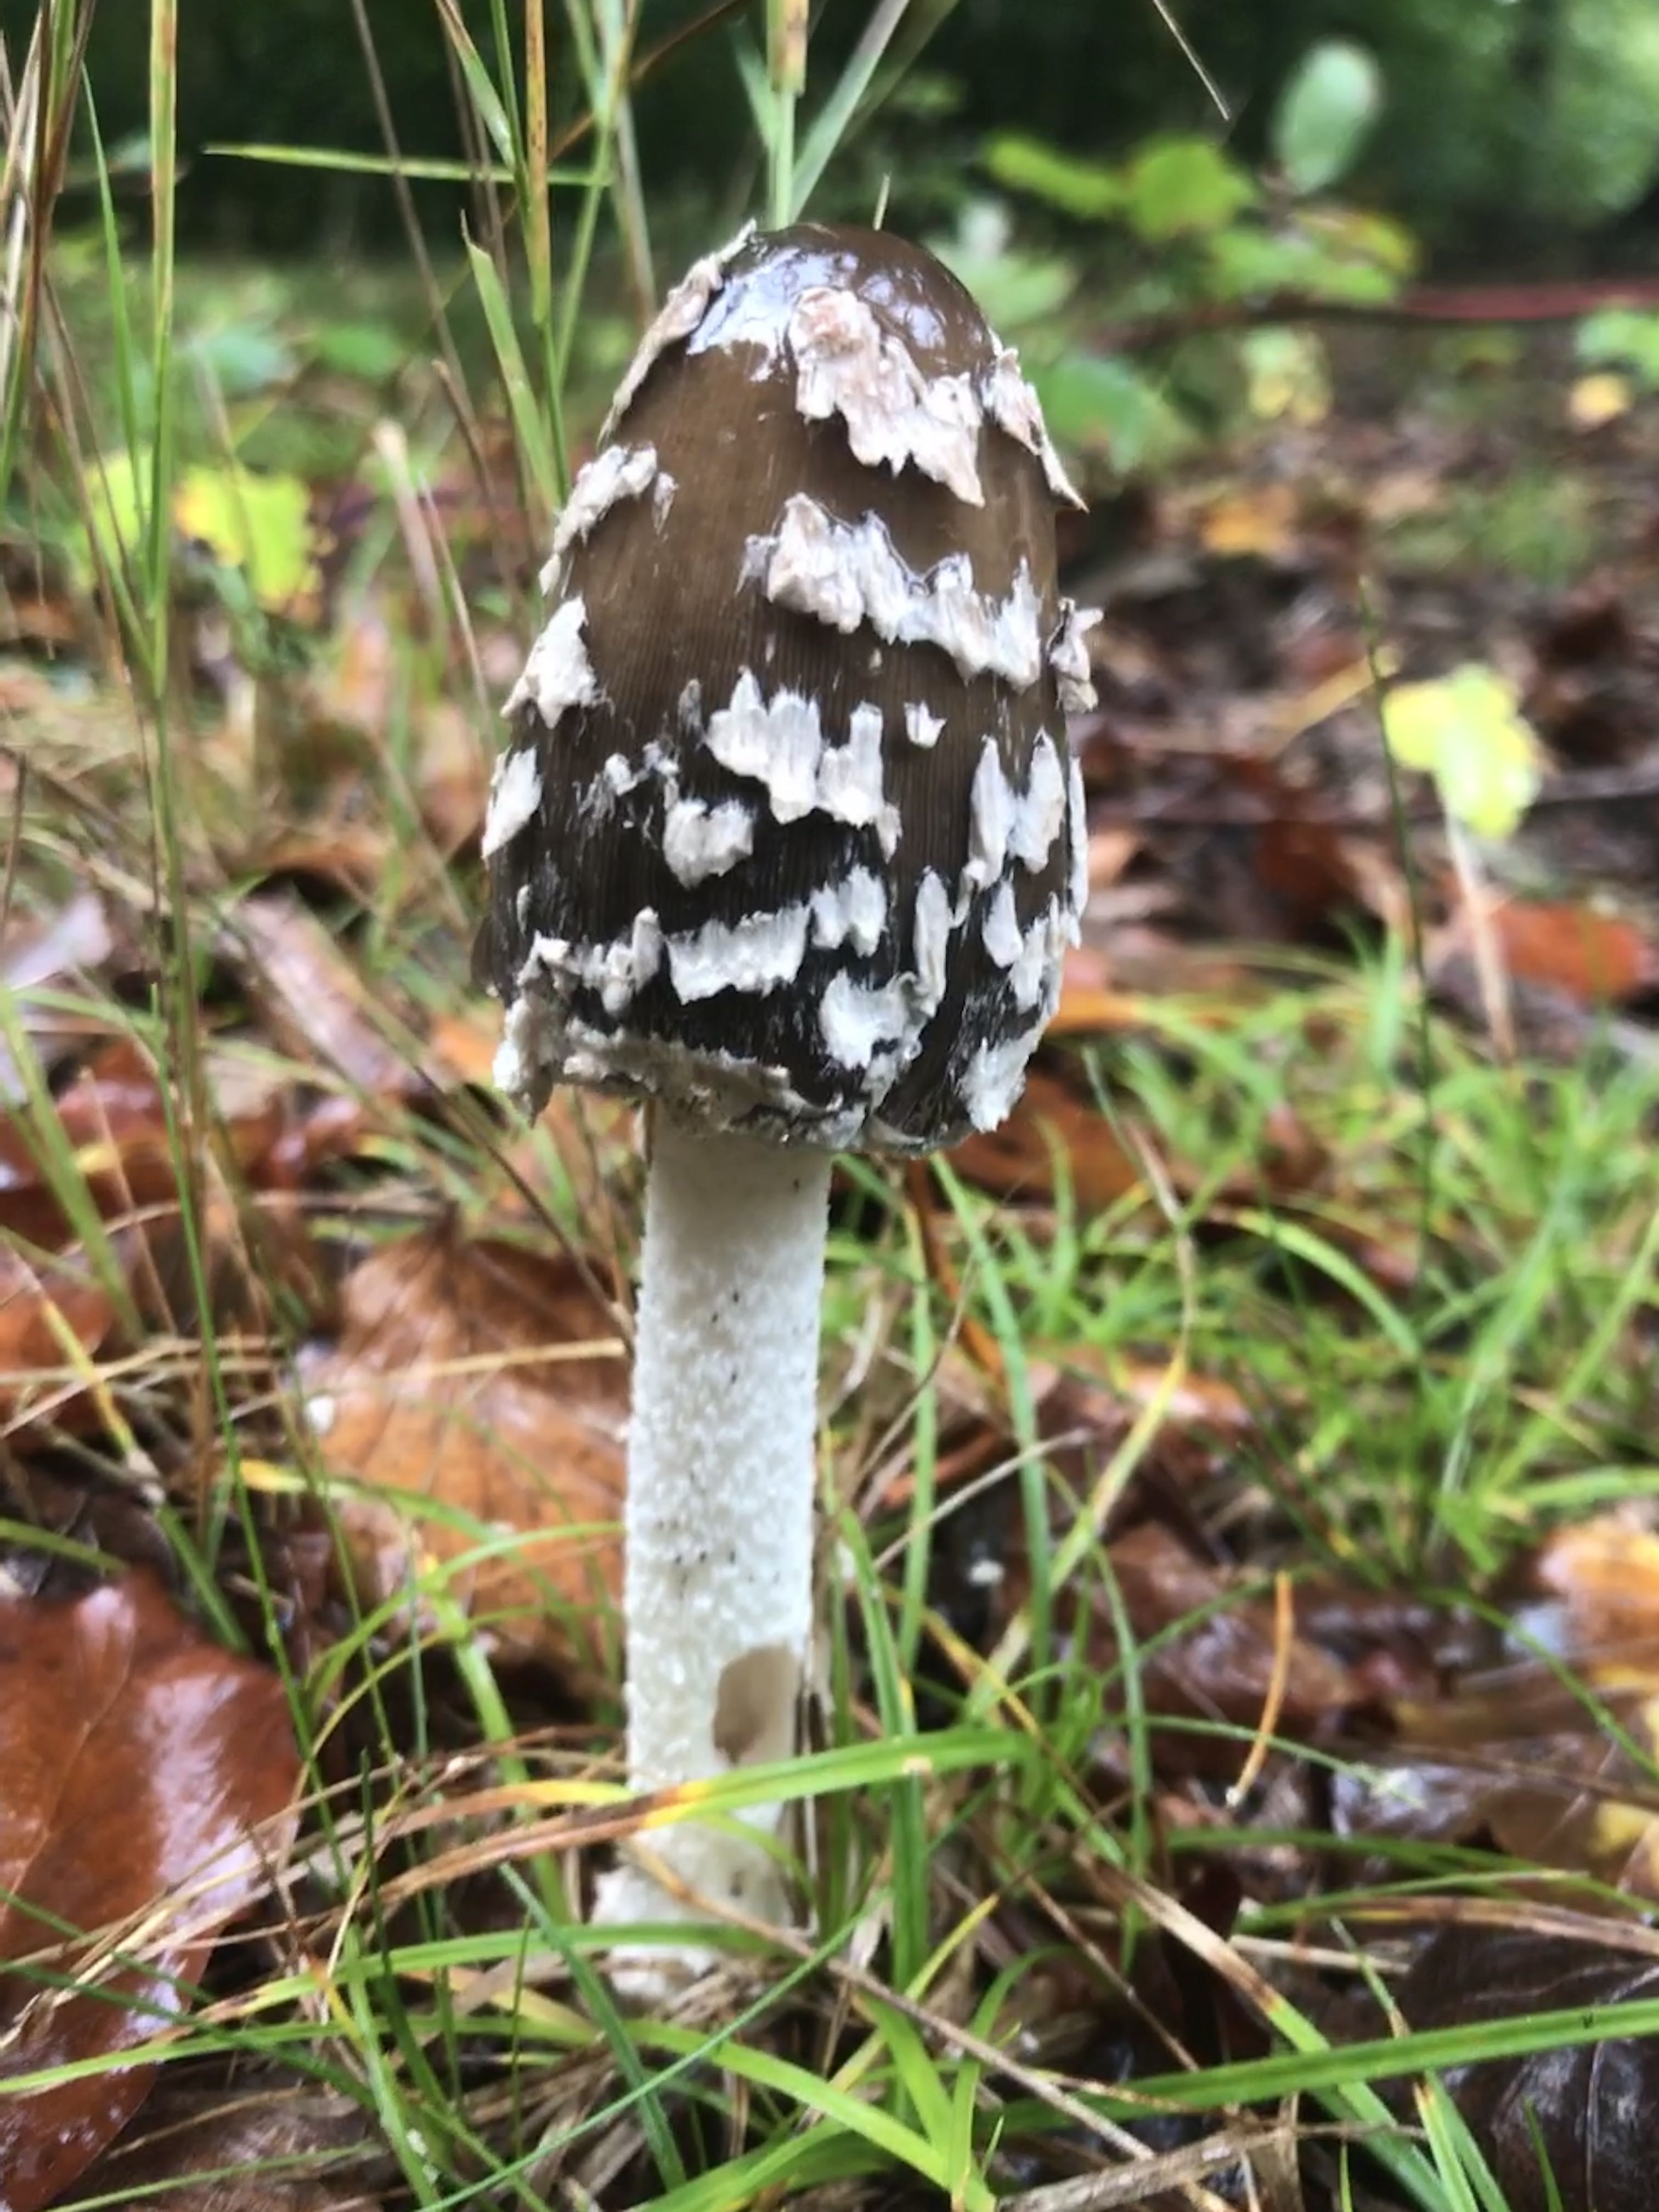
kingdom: Fungi
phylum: Basidiomycota
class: Agaricomycetes
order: Agaricales
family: Psathyrellaceae
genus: Coprinopsis
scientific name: Coprinopsis picacea
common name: skade-blækhat
